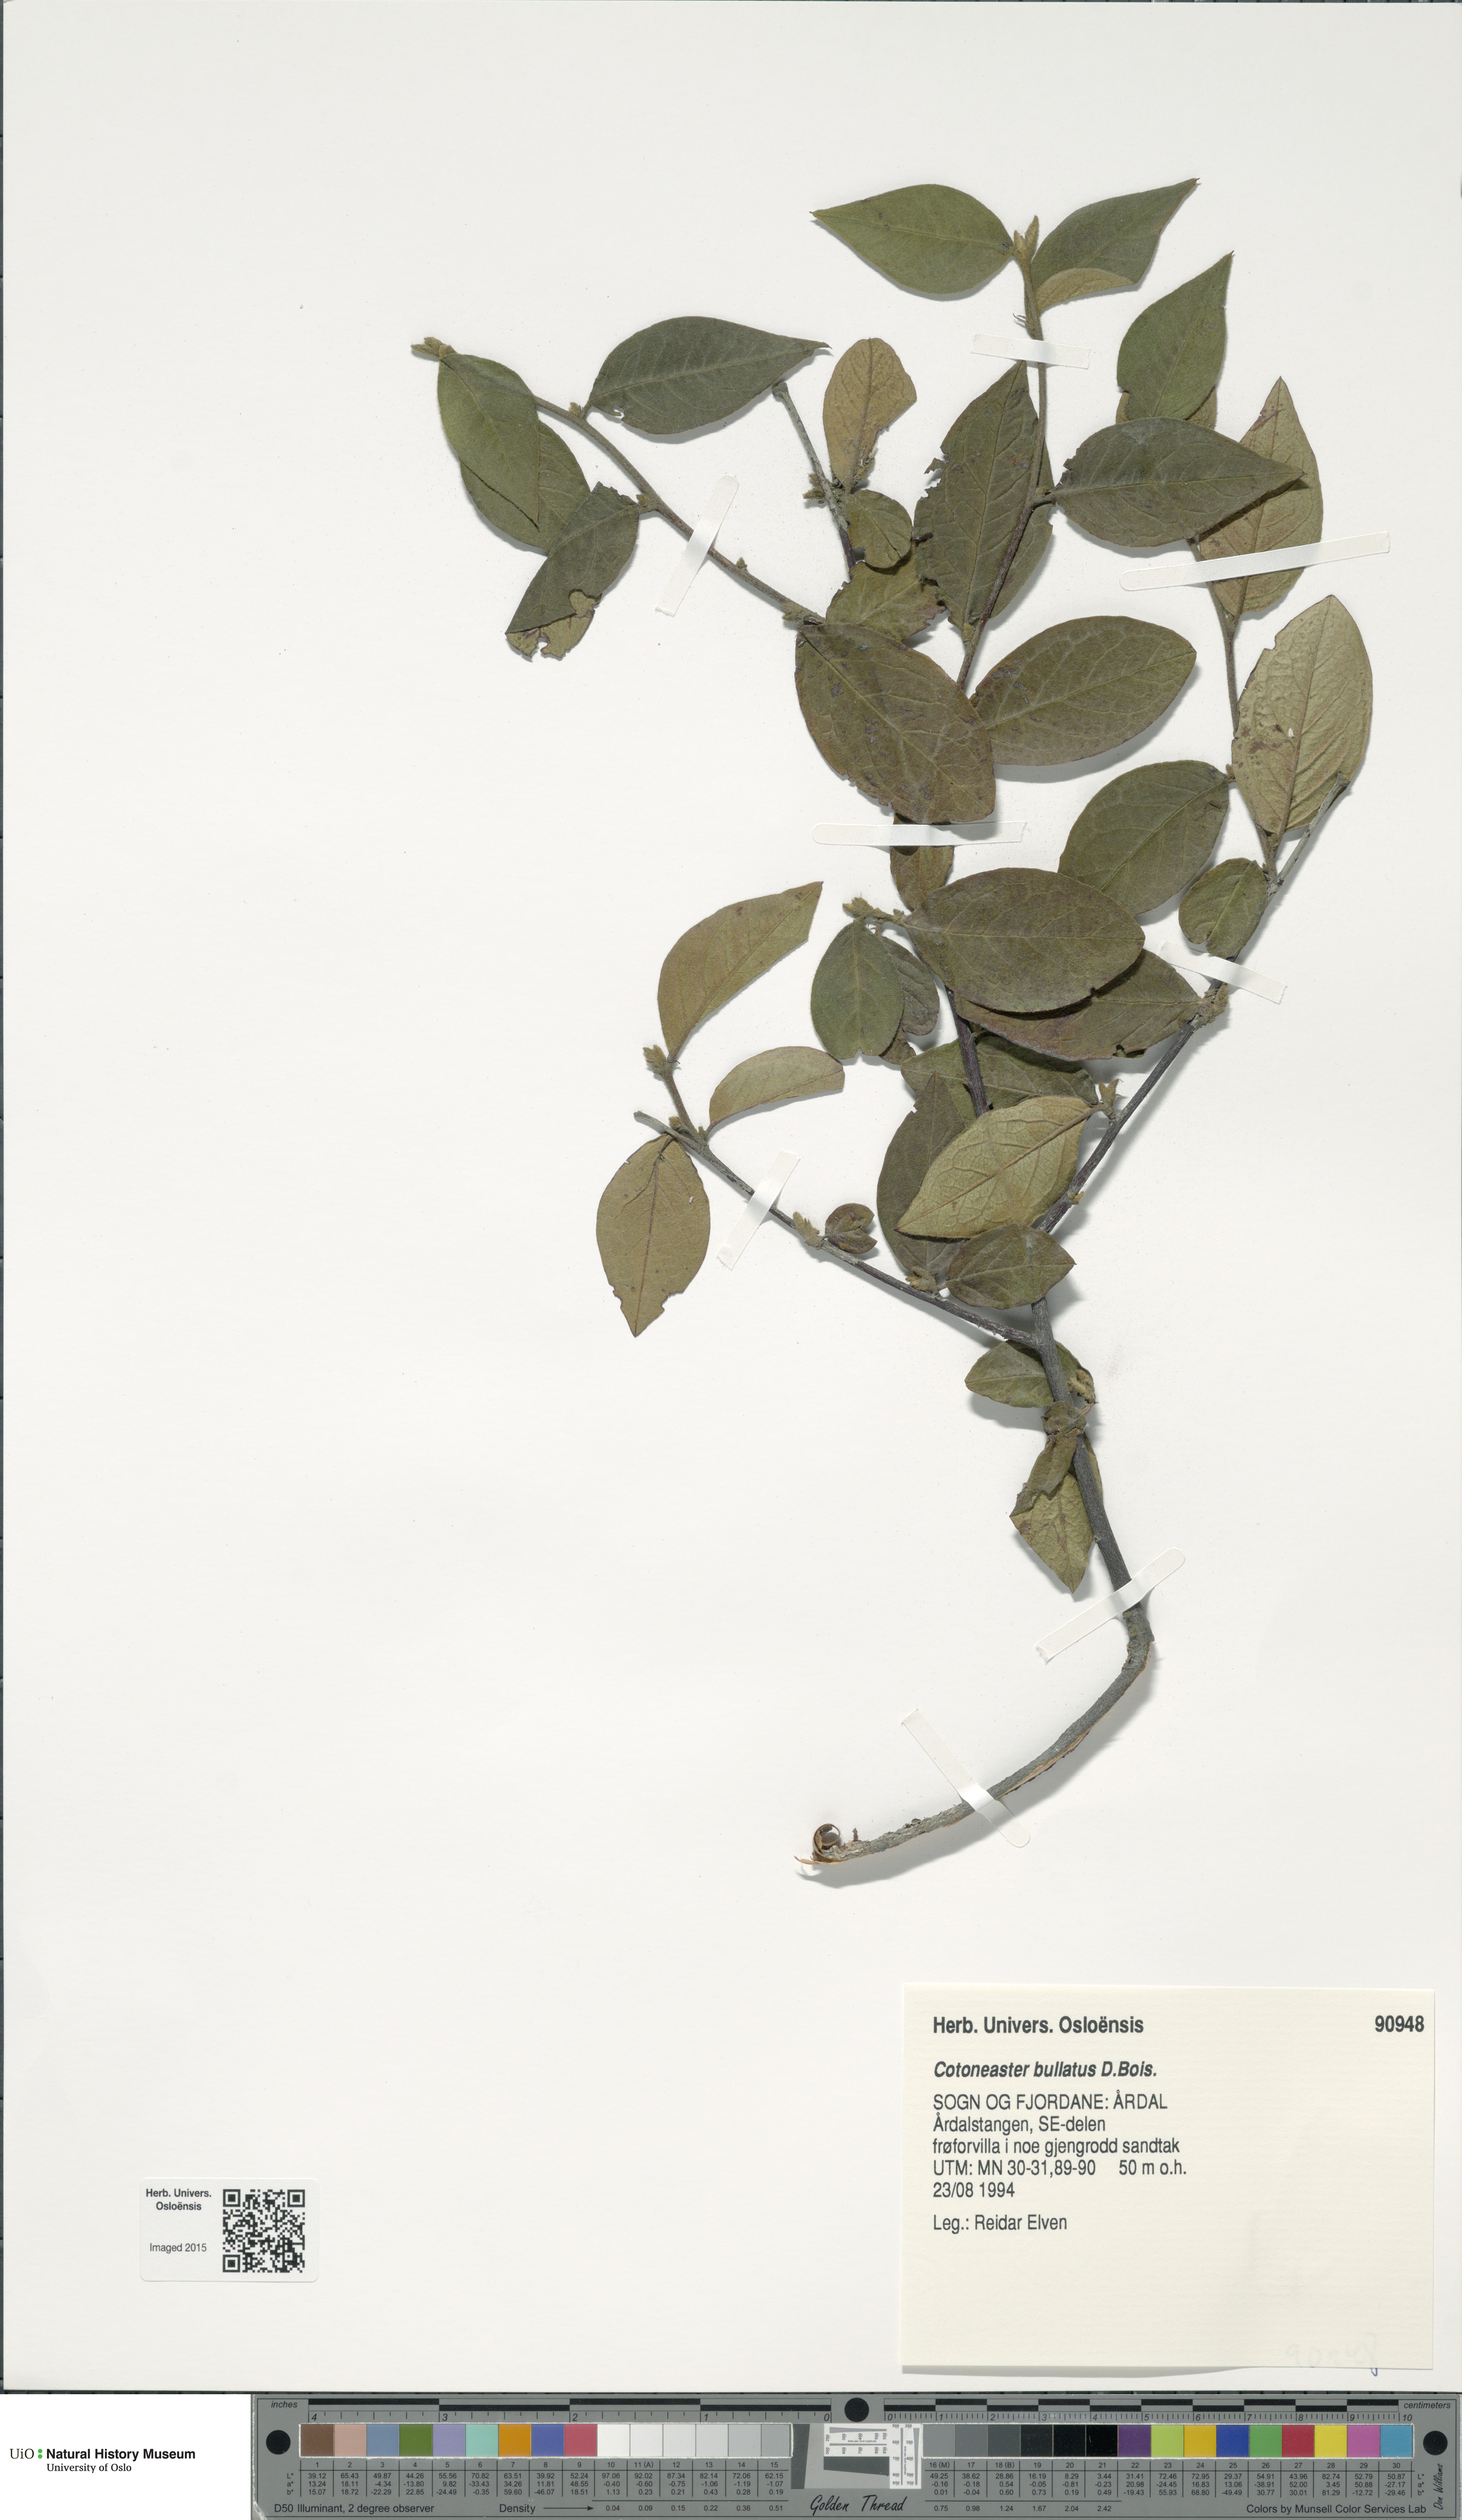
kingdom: Plantae
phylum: Tracheophyta
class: Magnoliopsida
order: Rosales
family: Rosaceae
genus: Cotoneaster
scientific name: Cotoneaster bullatus
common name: Hollyberry cotoneaster
